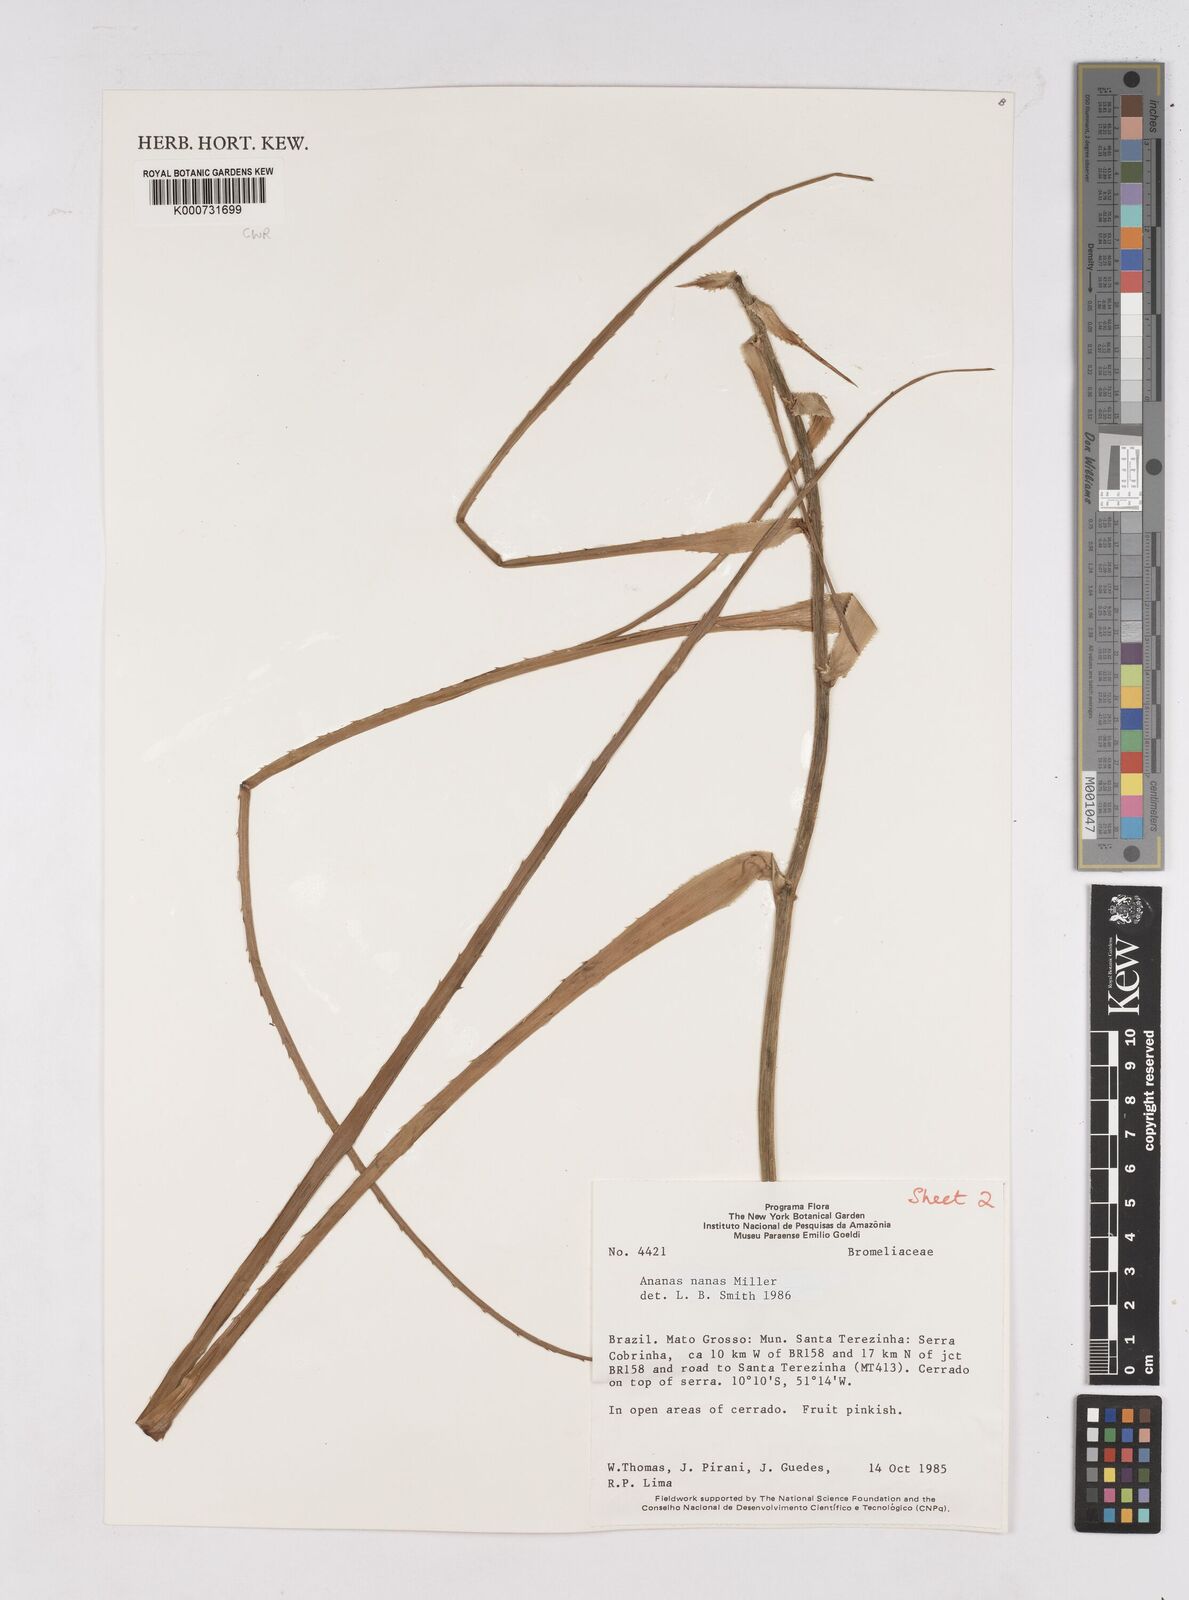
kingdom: Plantae
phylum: Tracheophyta
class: Liliopsida
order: Poales
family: Bromeliaceae
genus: Ananas
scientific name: Ananas comosus
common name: Pineapple
